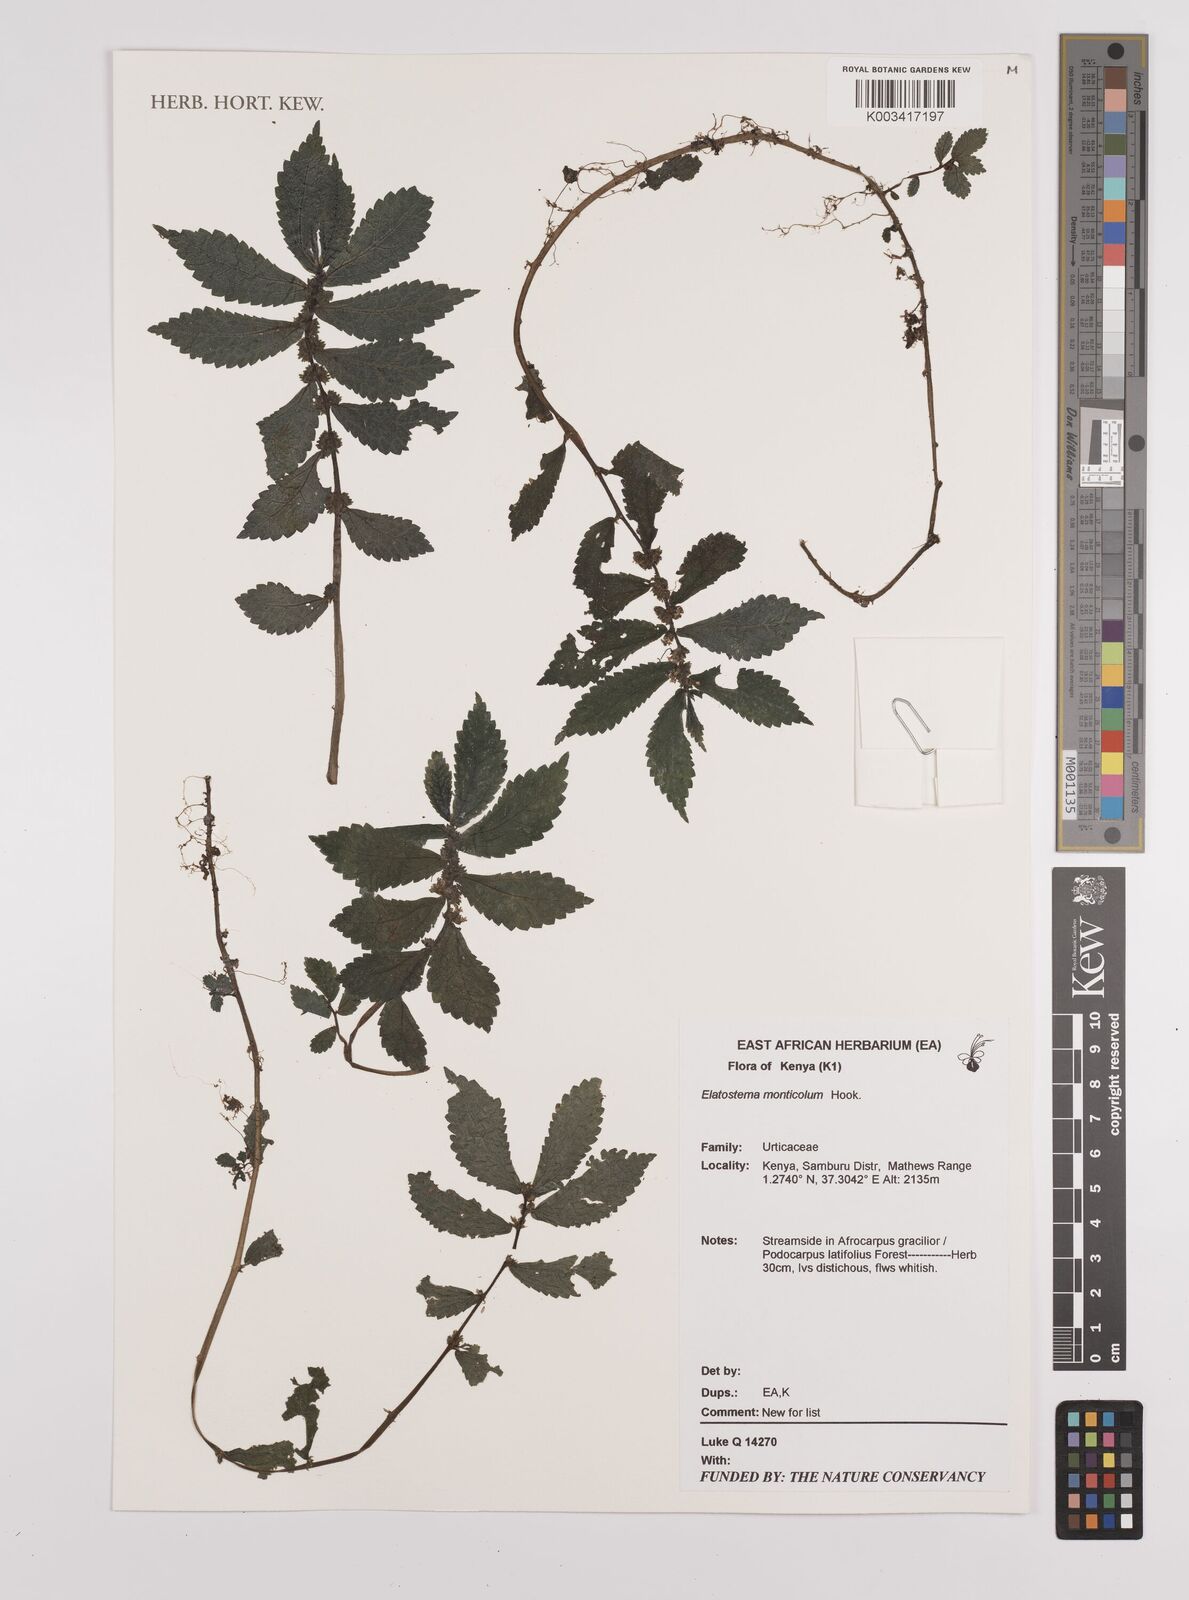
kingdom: Plantae
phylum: Tracheophyta
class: Magnoliopsida
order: Rosales
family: Urticaceae
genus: Elatostema
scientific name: Elatostema monticola
